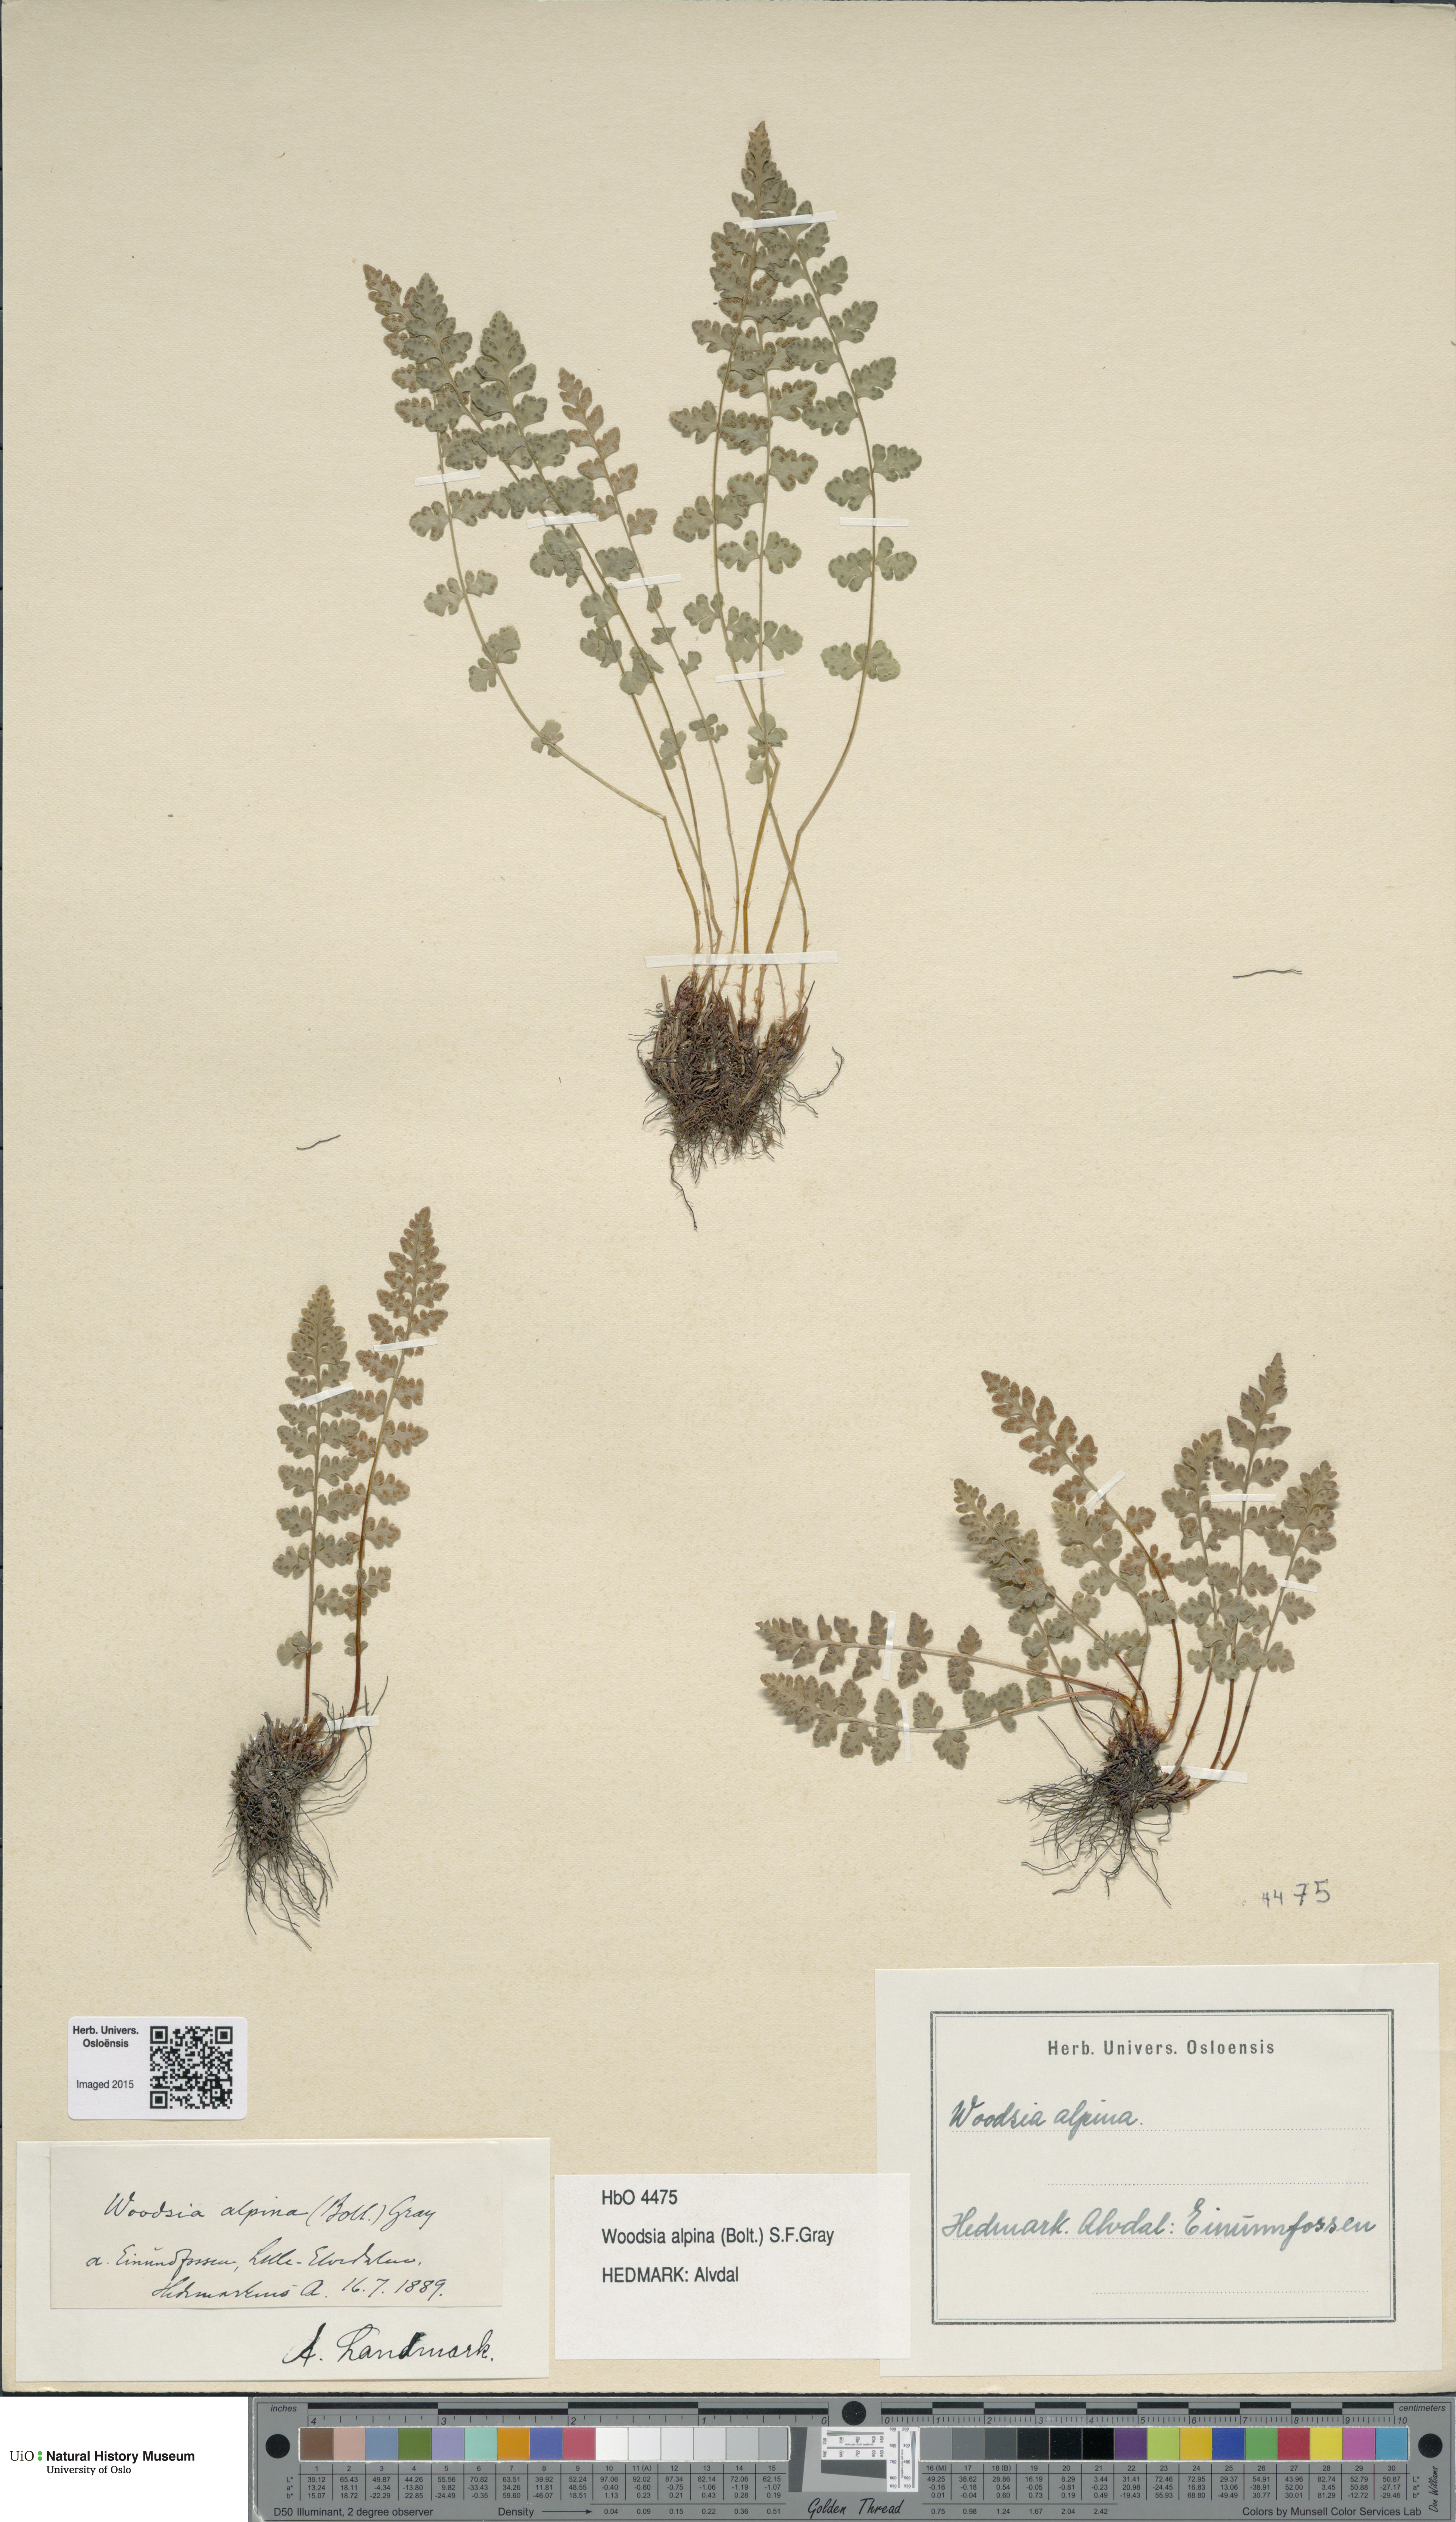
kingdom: Plantae
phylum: Tracheophyta
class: Polypodiopsida
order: Polypodiales
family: Woodsiaceae
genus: Woodsia
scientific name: Woodsia alpina
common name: Alpine woodsia
